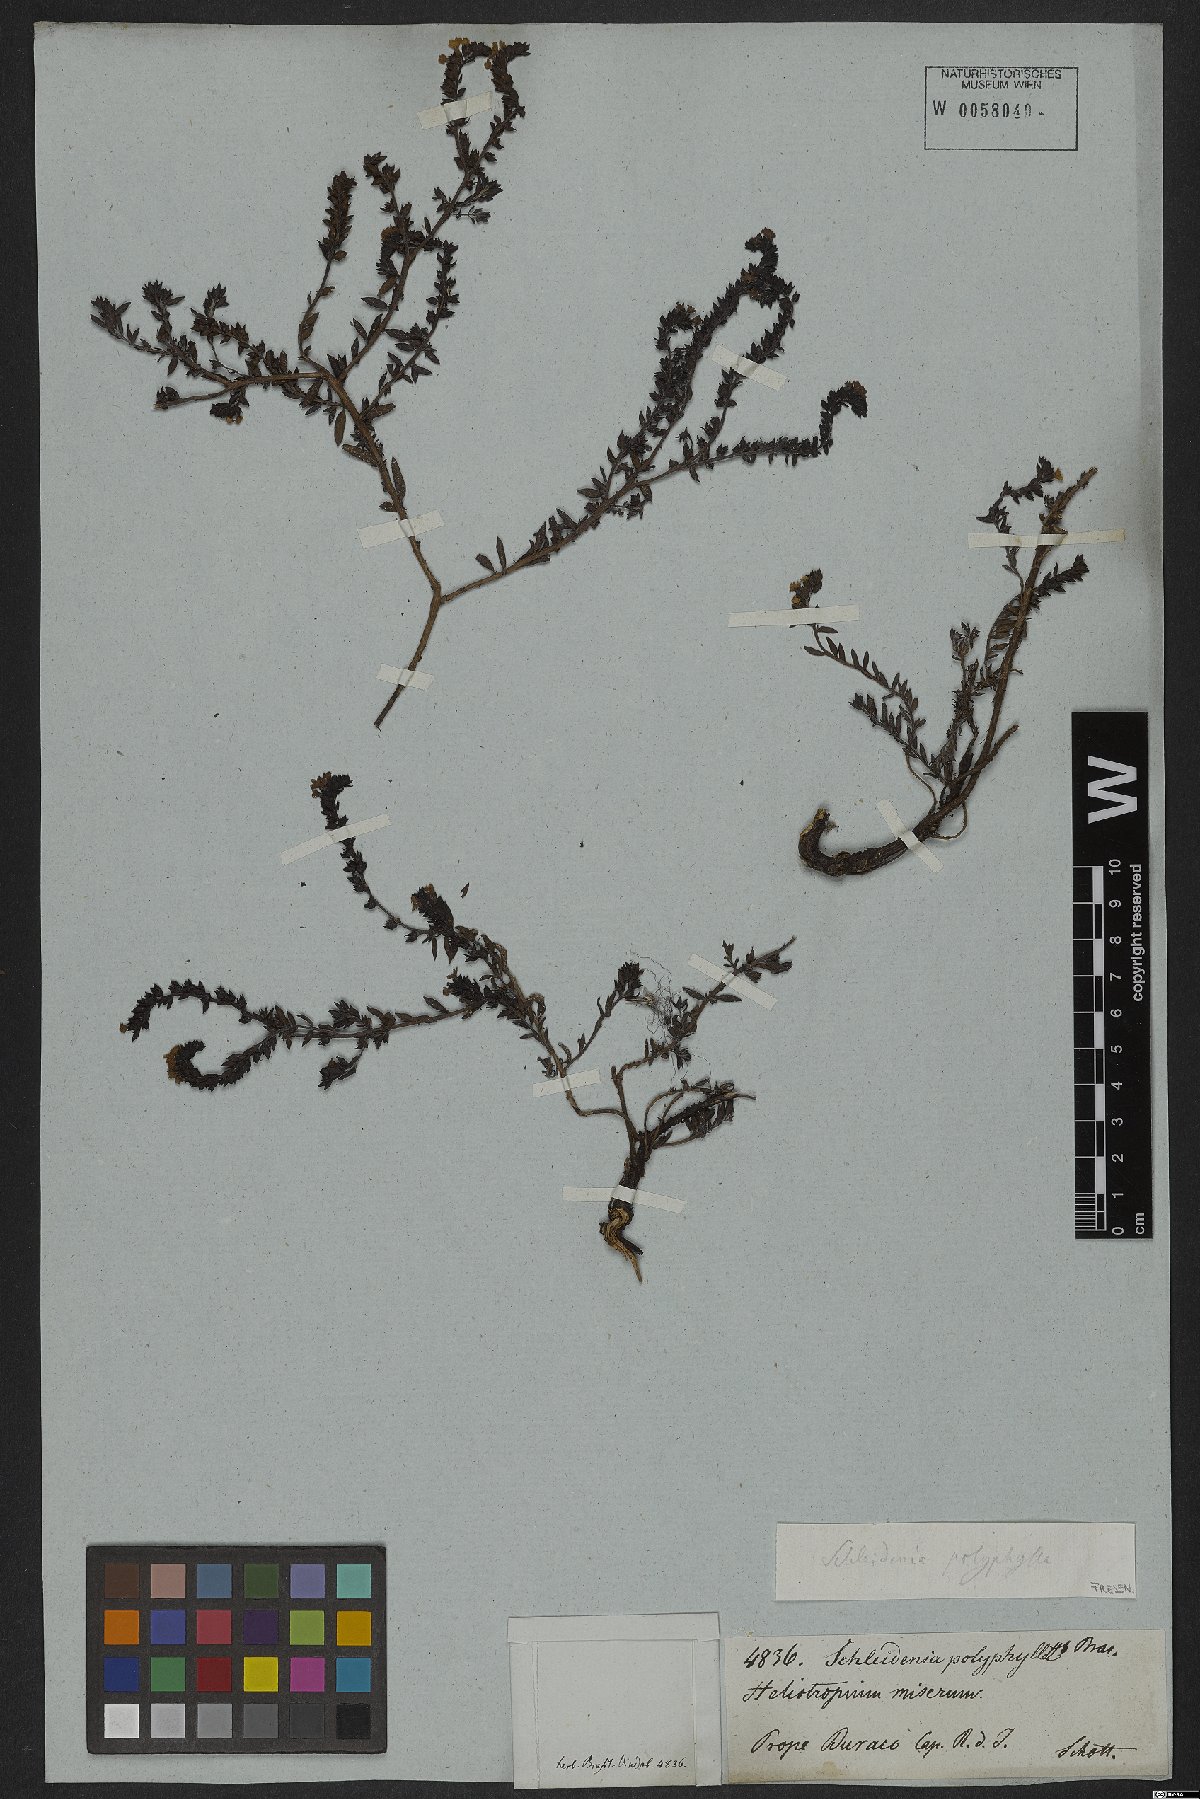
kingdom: Plantae
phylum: Tracheophyta
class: Magnoliopsida
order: Boraginales
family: Heliotropiaceae
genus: Euploca
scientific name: Euploca polyphylla
